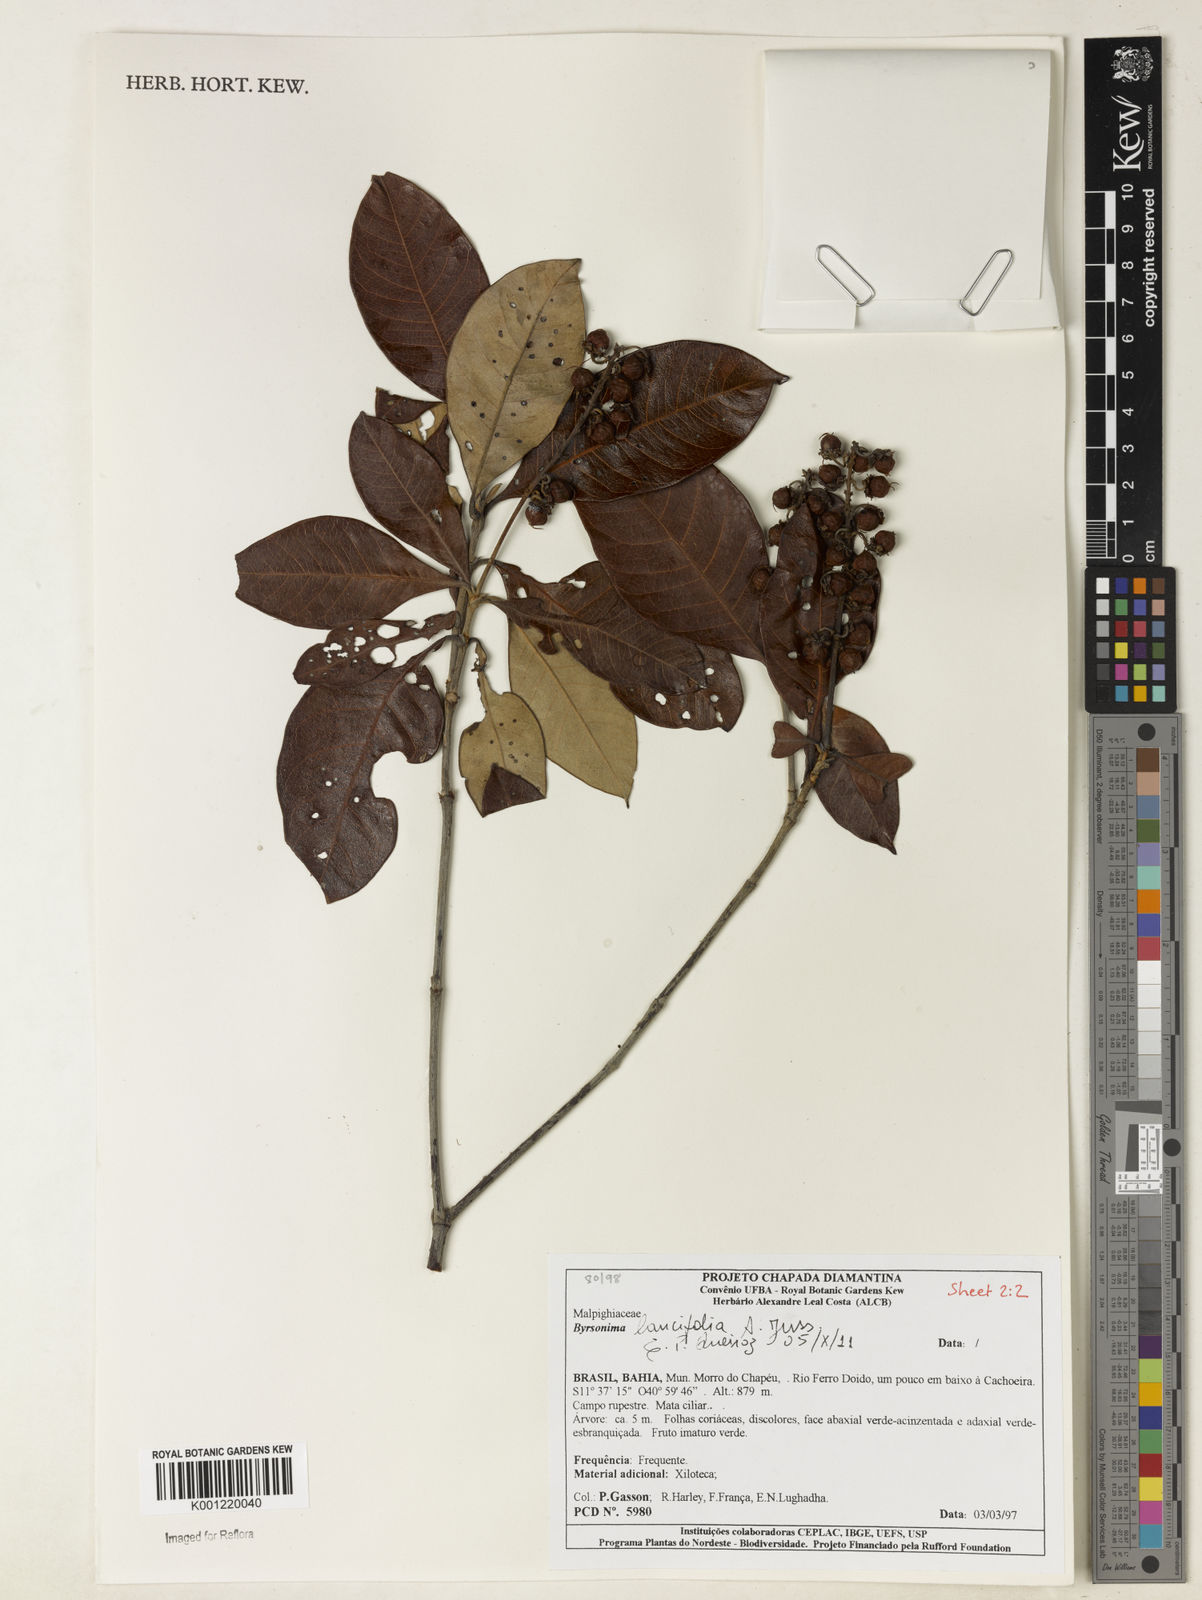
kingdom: Plantae
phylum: Tracheophyta
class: Magnoliopsida
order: Malpighiales
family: Malpighiaceae
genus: Byrsonima
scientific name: Byrsonima lancifolia
